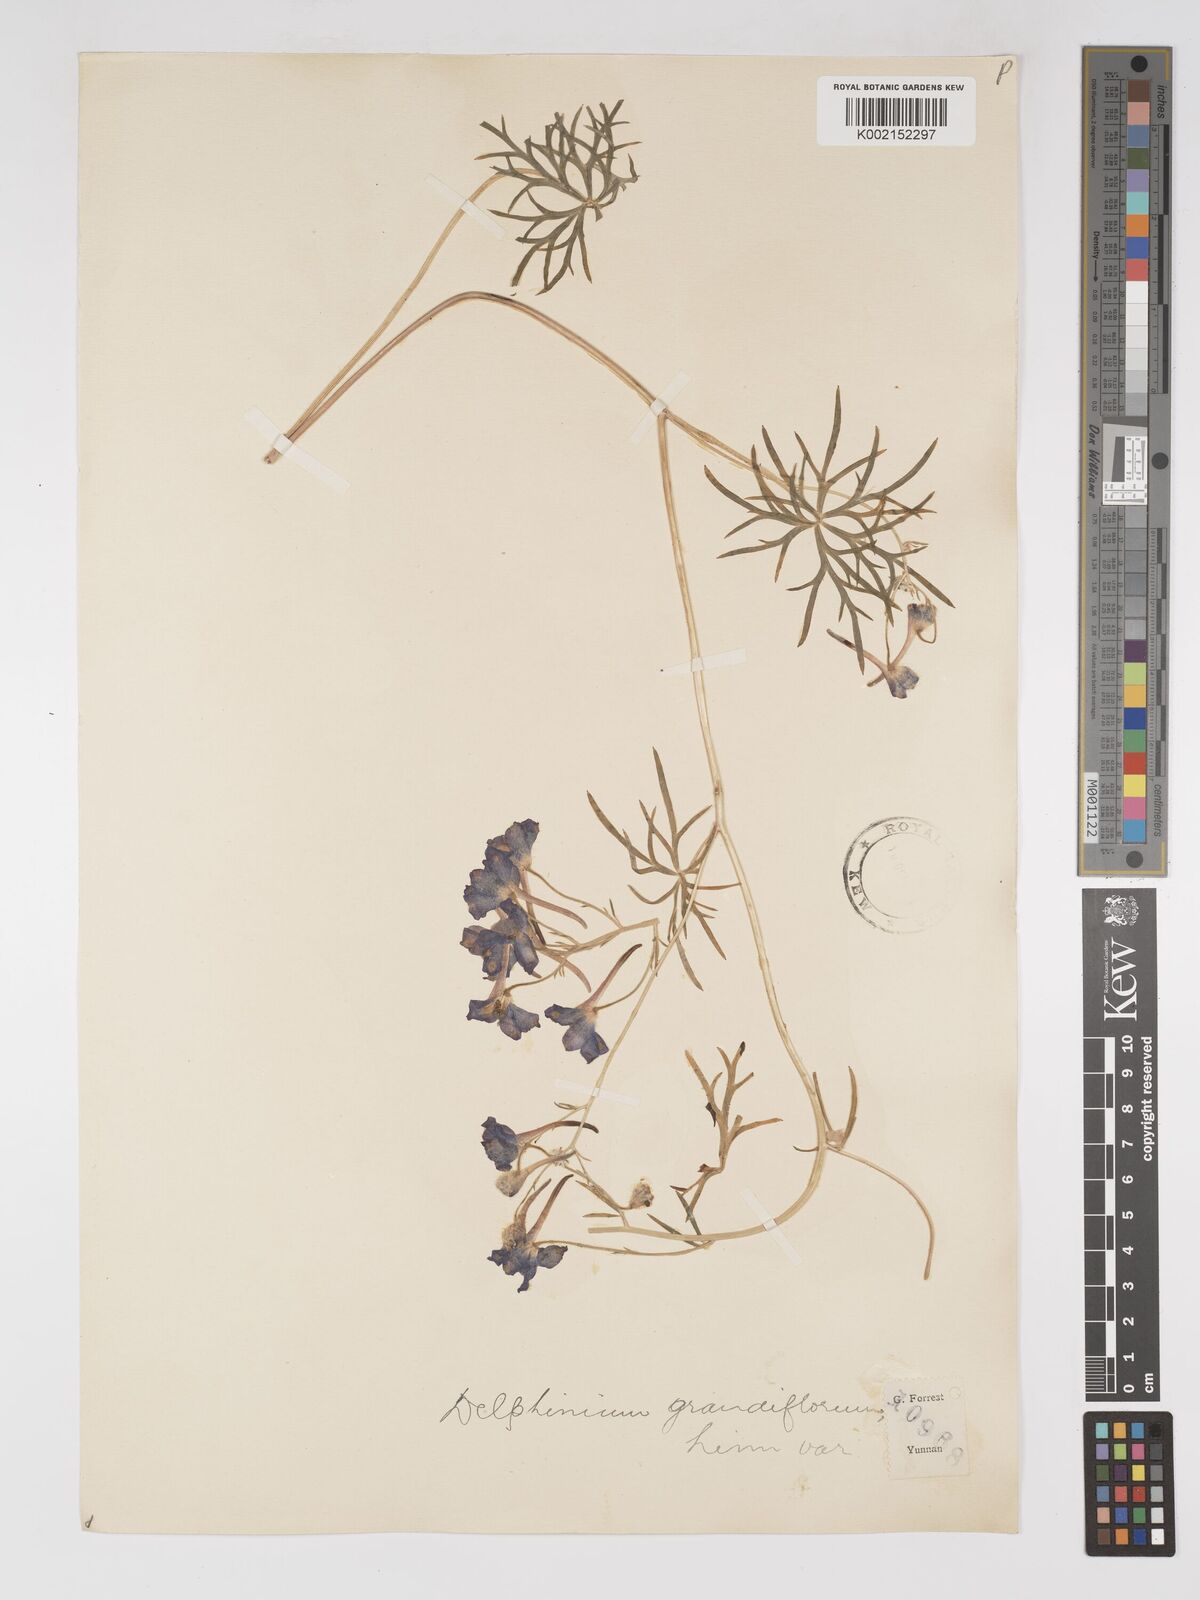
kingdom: Plantae
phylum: Tracheophyta
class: Magnoliopsida
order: Ranunculales
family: Ranunculaceae
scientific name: Ranunculaceae
